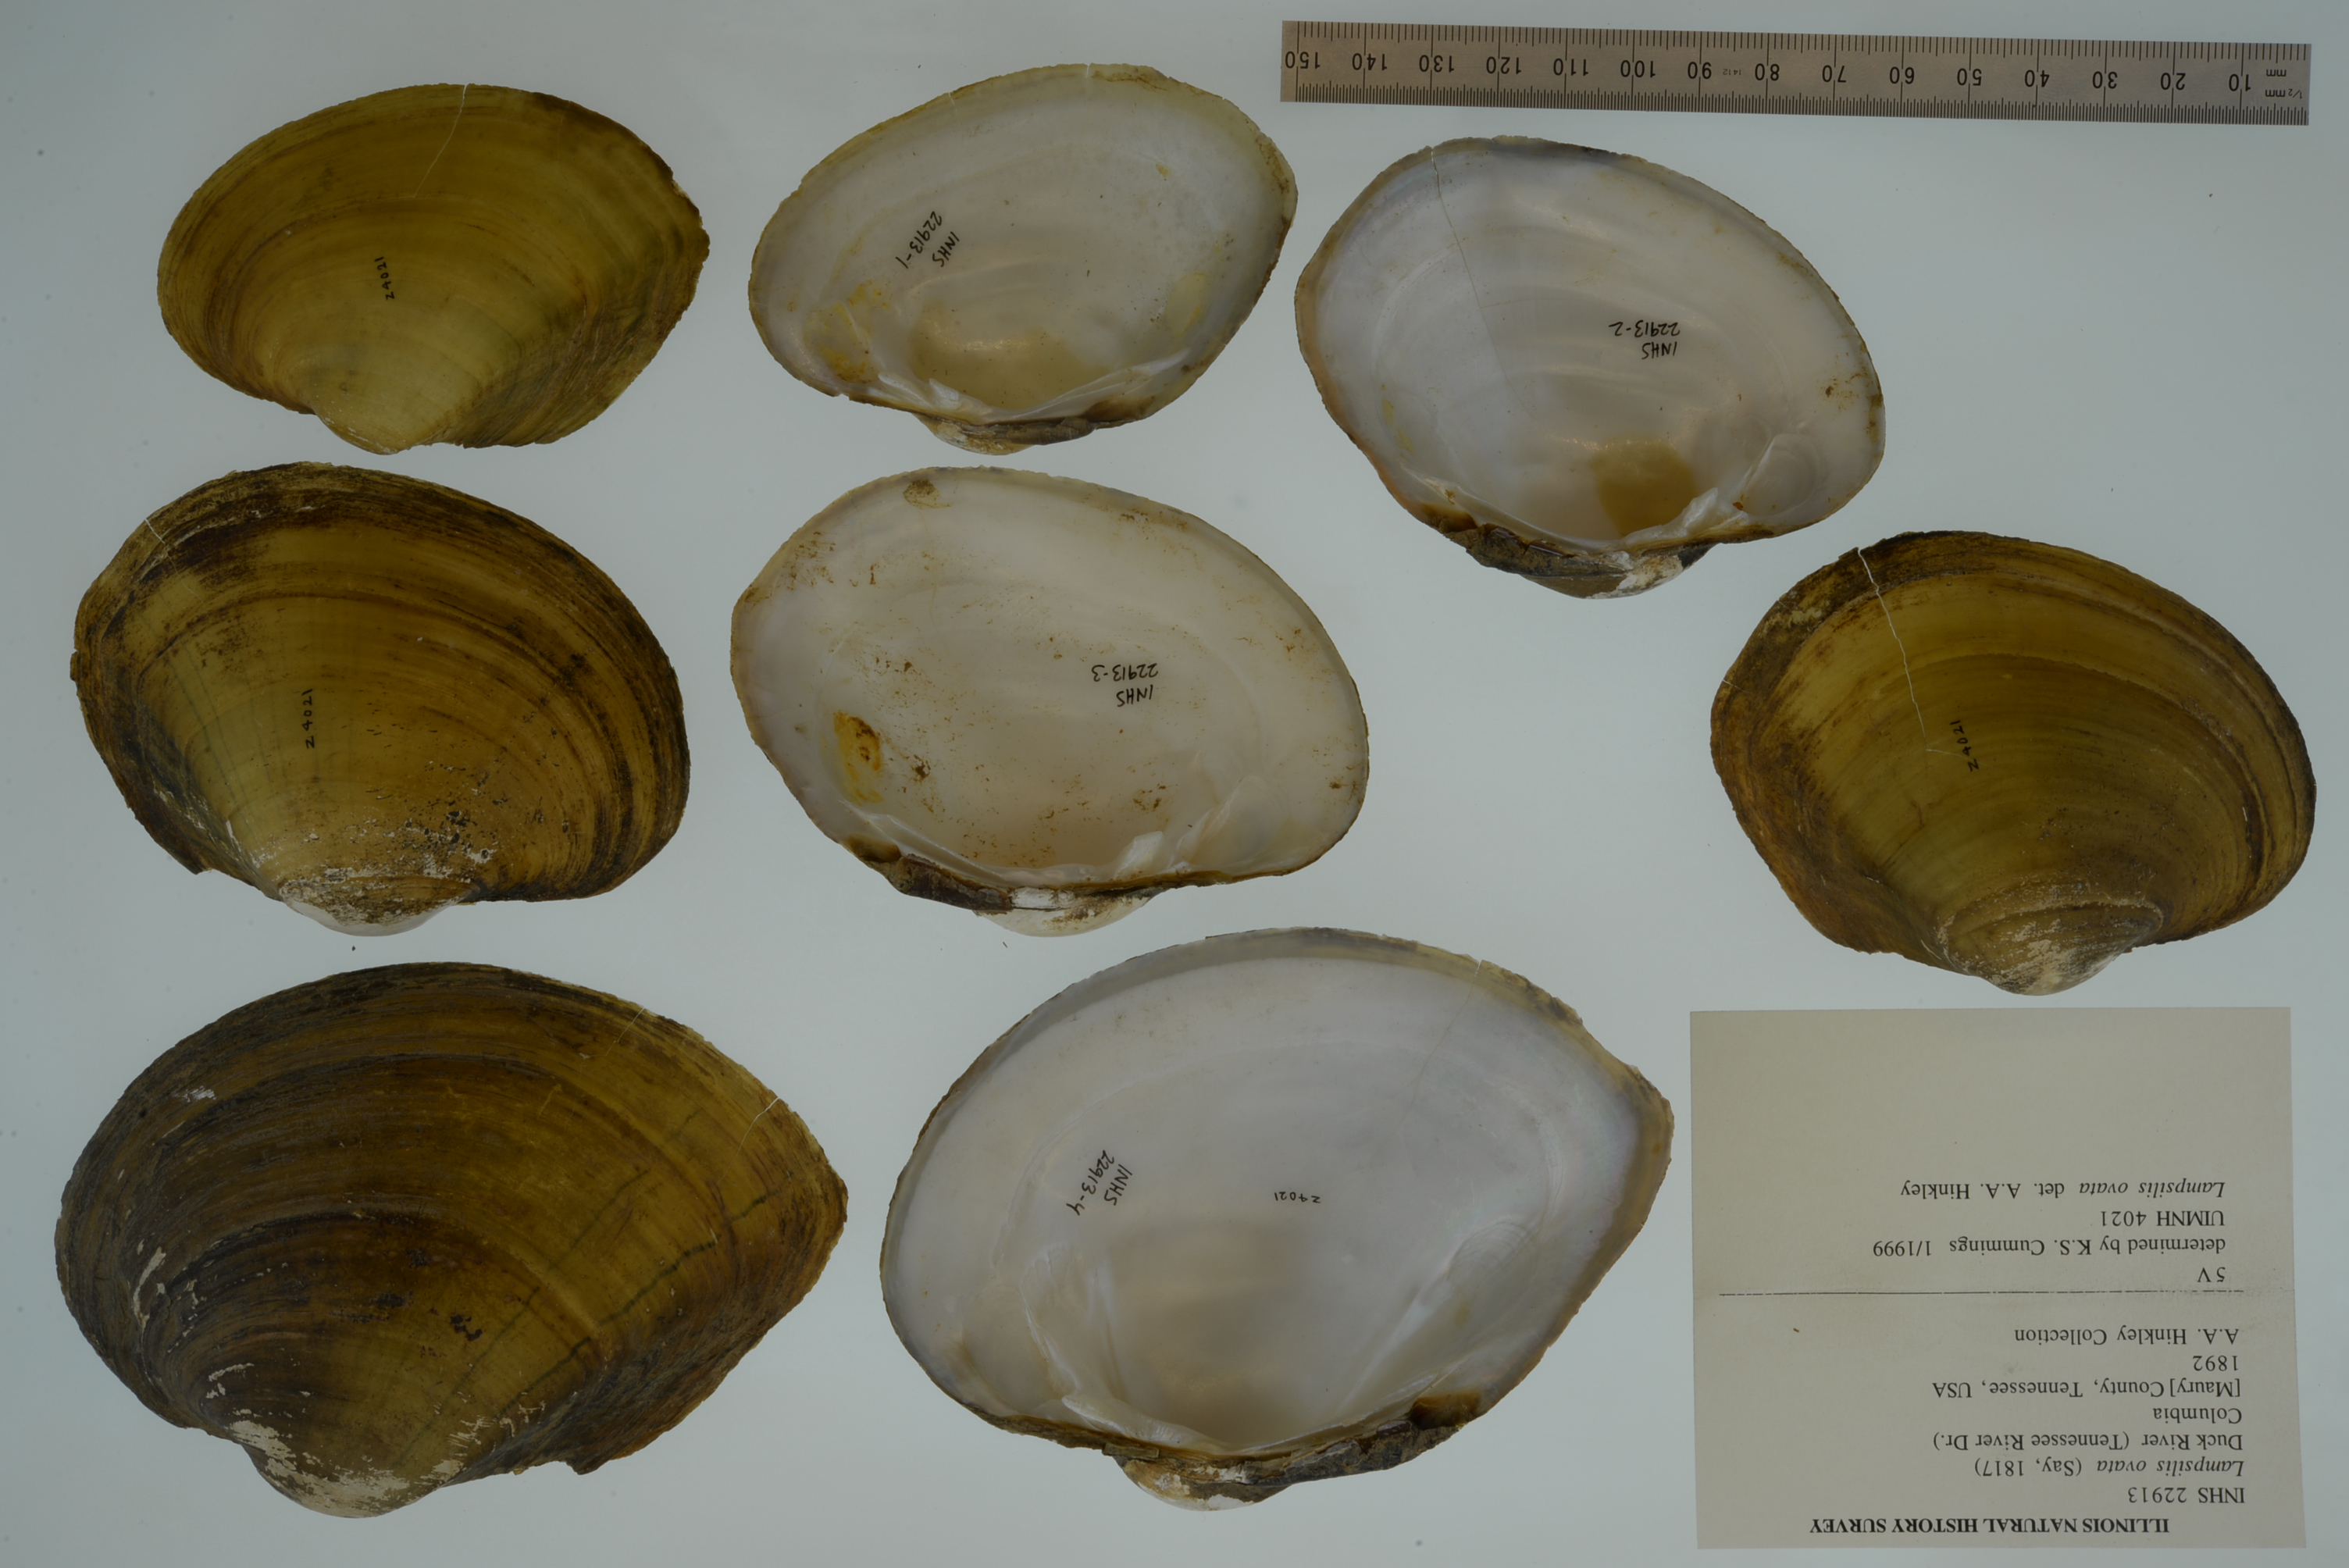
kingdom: Animalia
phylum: Mollusca
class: Bivalvia
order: Unionida
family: Unionidae
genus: Lampsilis
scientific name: Lampsilis ovata
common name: Pocketbook
